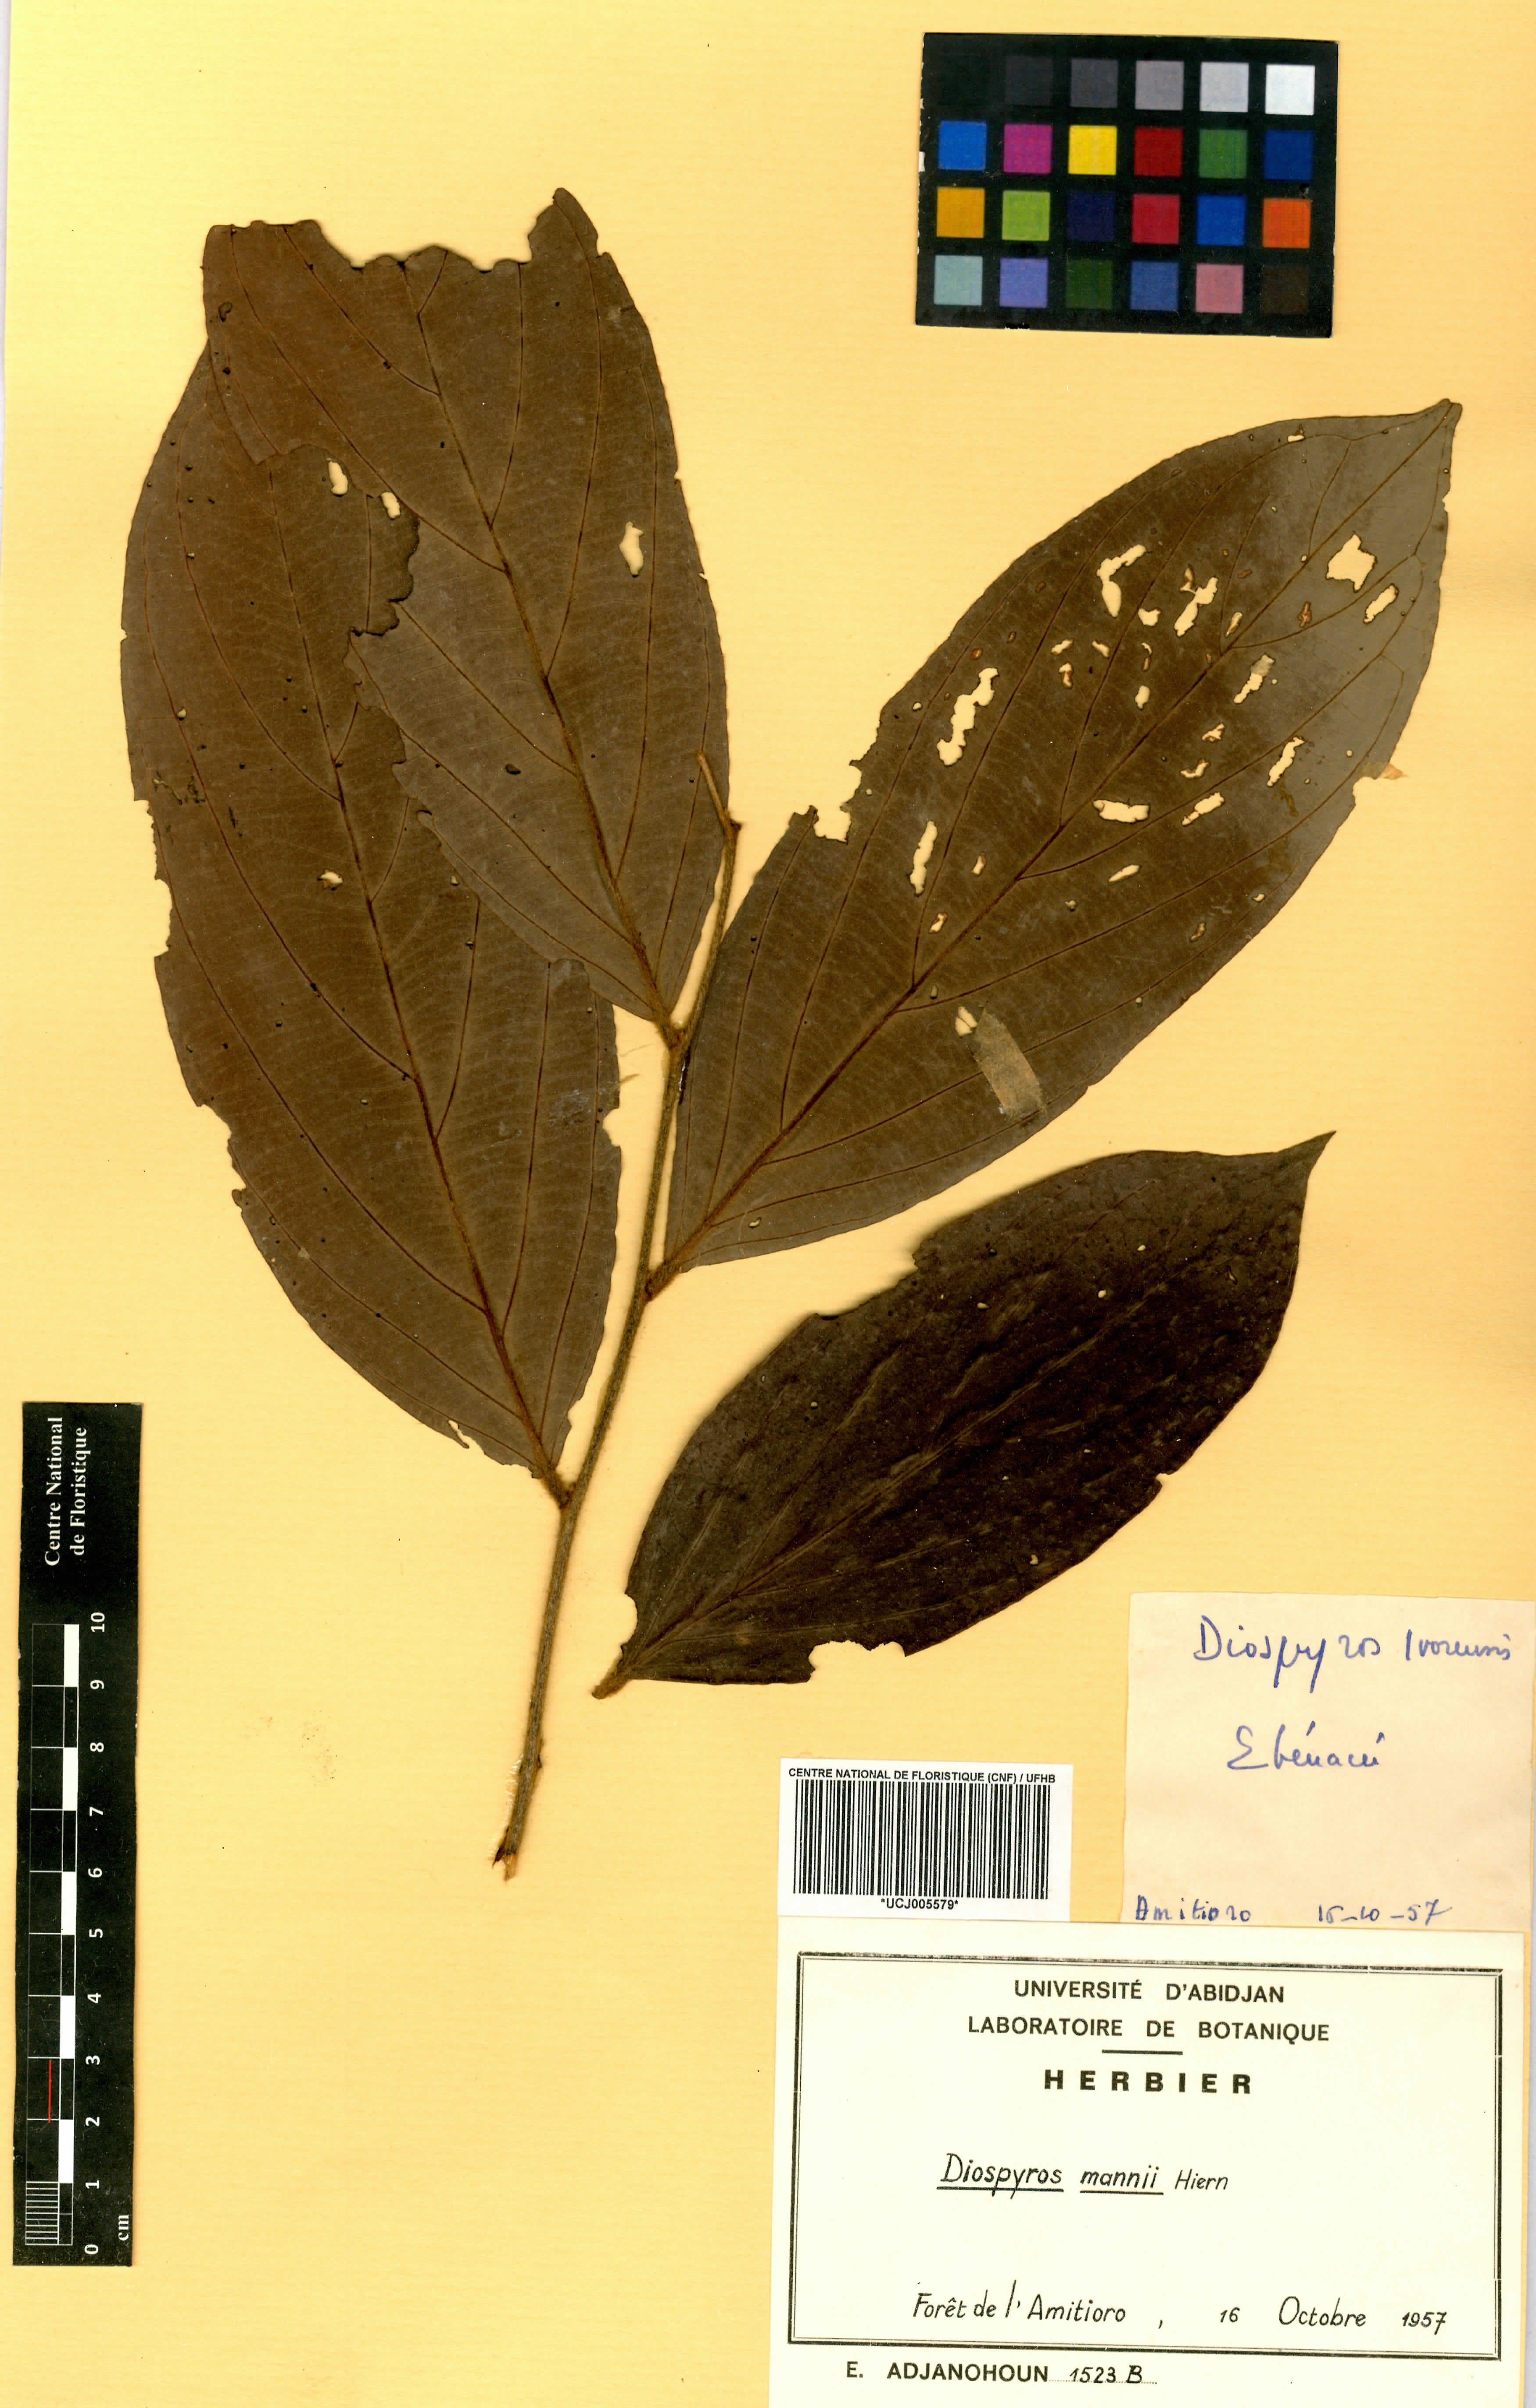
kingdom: Plantae
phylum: Tracheophyta
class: Magnoliopsida
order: Ericales
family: Ebenaceae
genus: Diospyros
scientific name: Diospyros mannii
